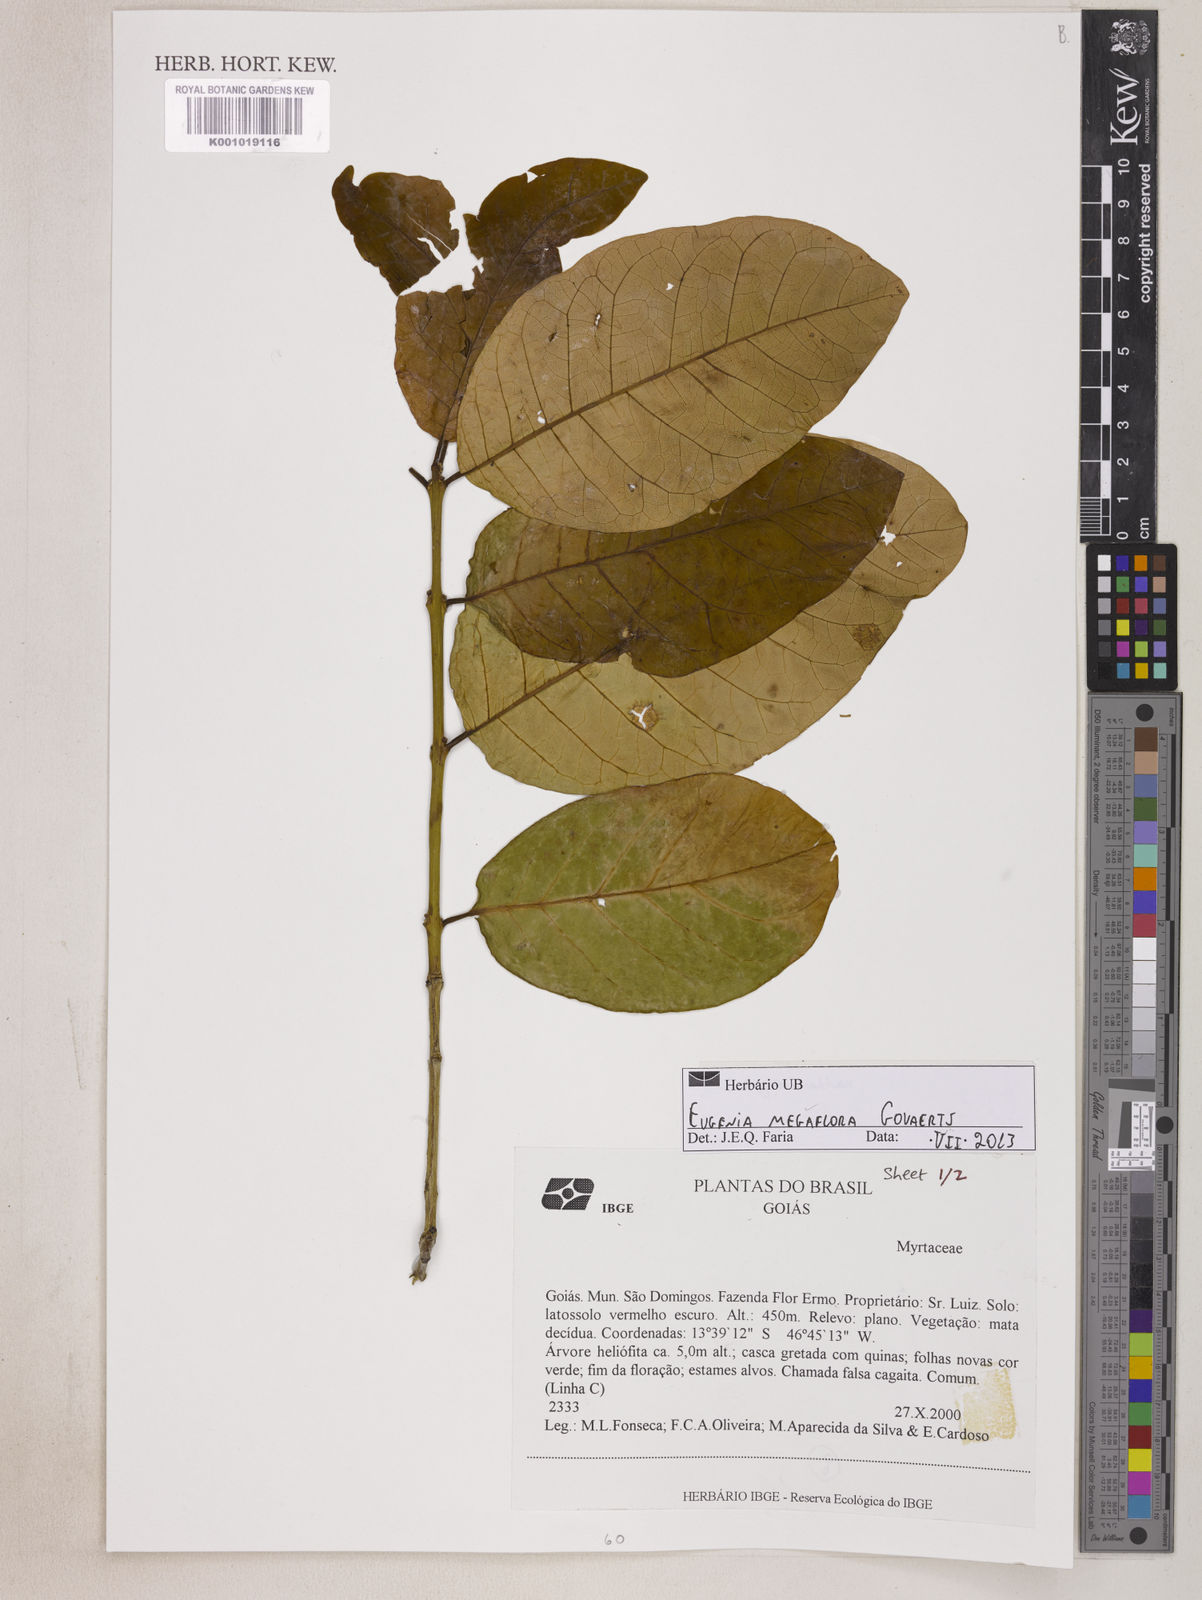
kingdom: Plantae
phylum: Tracheophyta
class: Magnoliopsida
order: Myrtales
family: Myrtaceae
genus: Eugenia
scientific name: Eugenia megaflora
